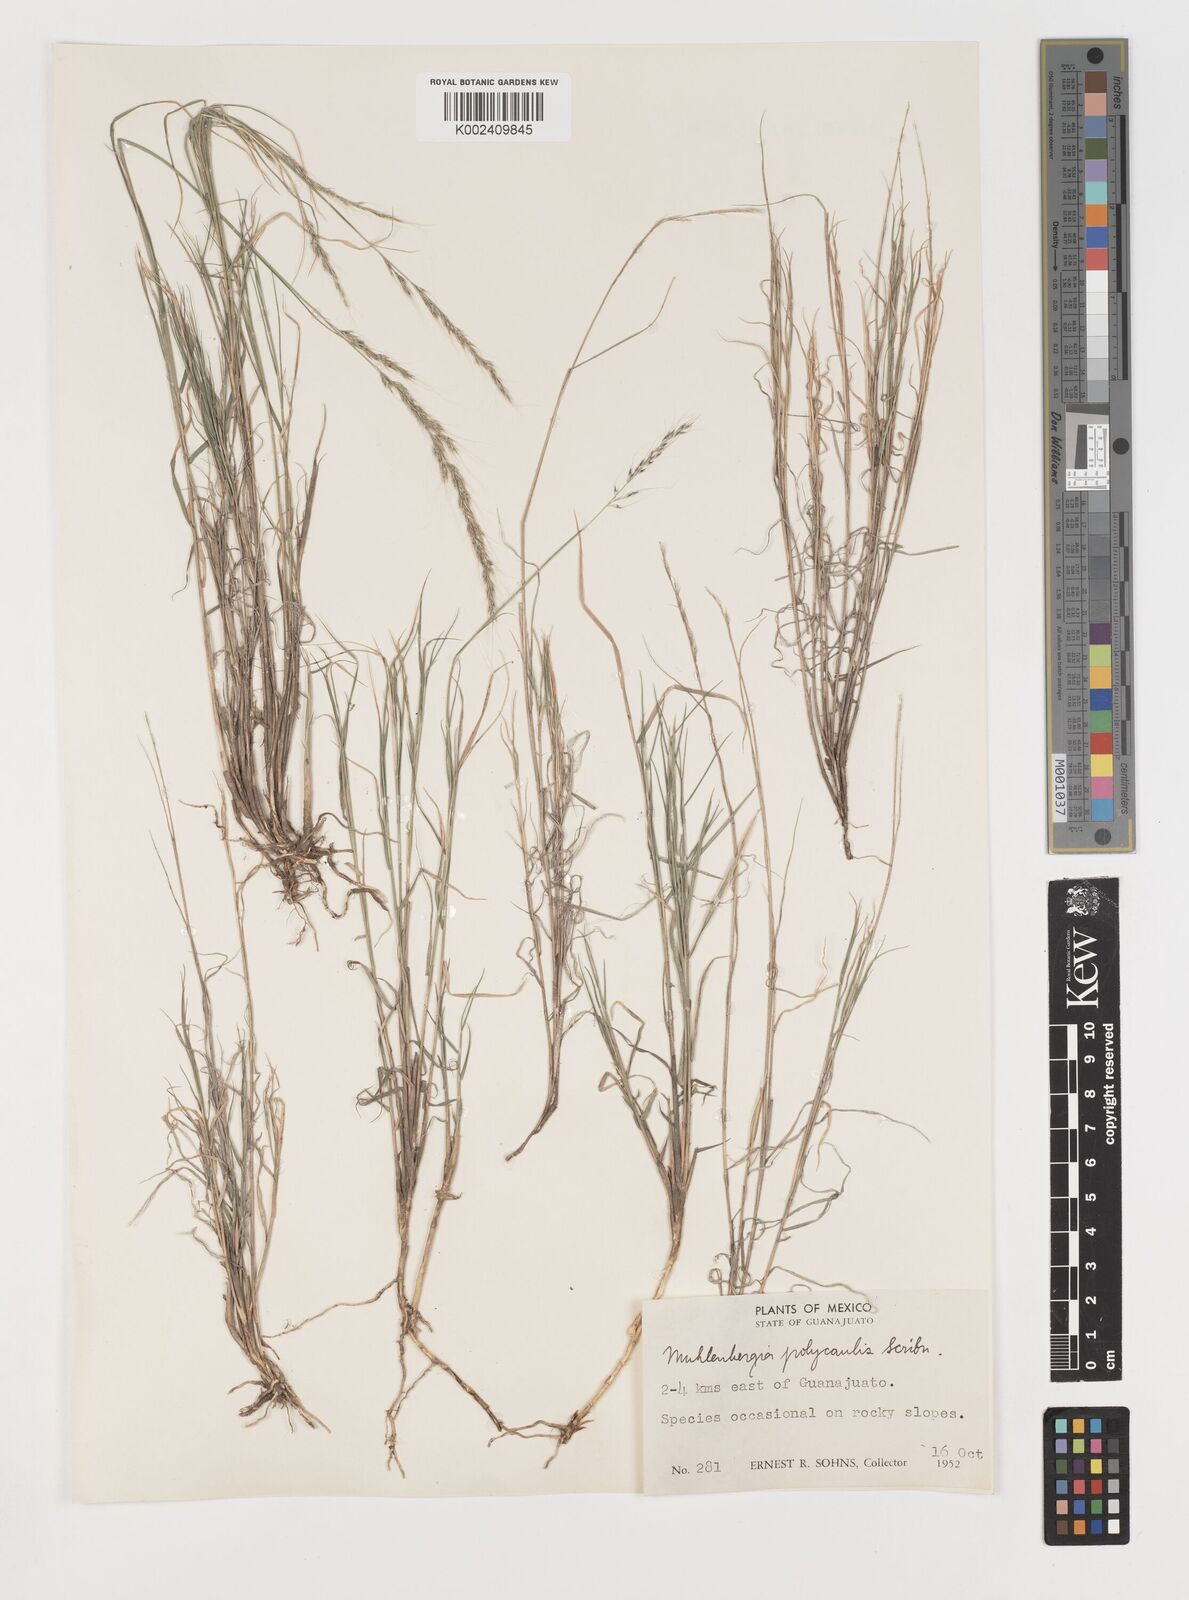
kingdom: Plantae
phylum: Tracheophyta
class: Liliopsida
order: Poales
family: Poaceae
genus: Muhlenbergia
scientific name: Muhlenbergia polycaulis
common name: Cliff muhly
